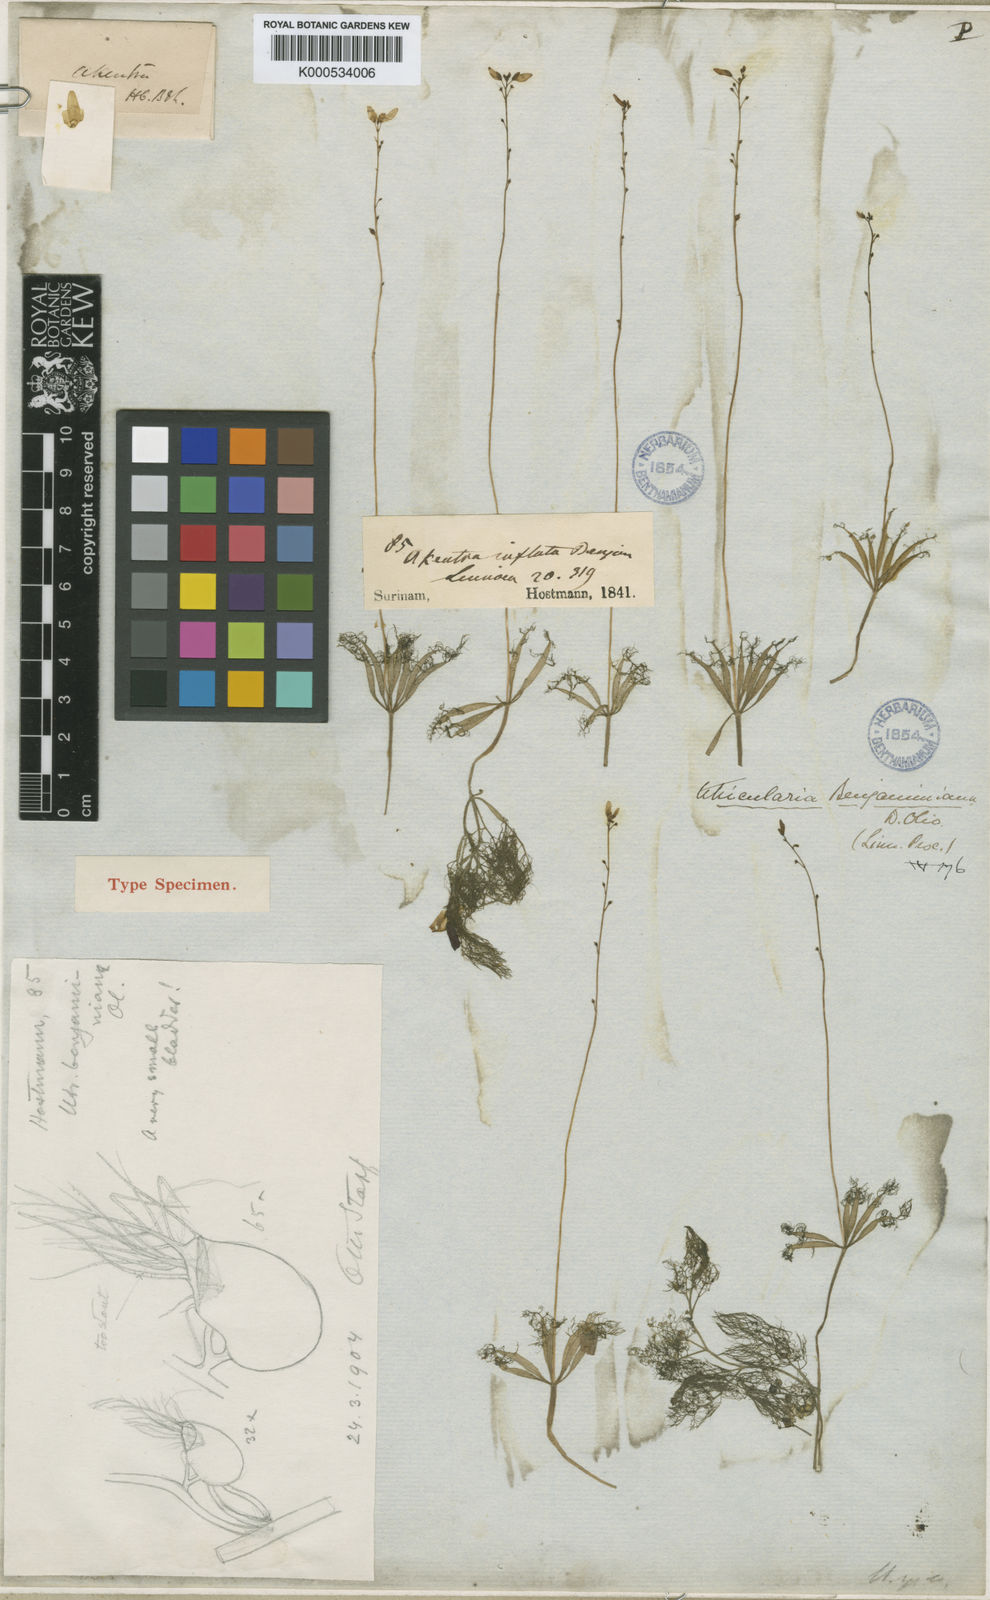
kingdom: Plantae
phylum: Tracheophyta
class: Magnoliopsida
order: Lamiales
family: Lentibulariaceae
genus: Utricularia
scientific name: Utricularia benjaminiana
